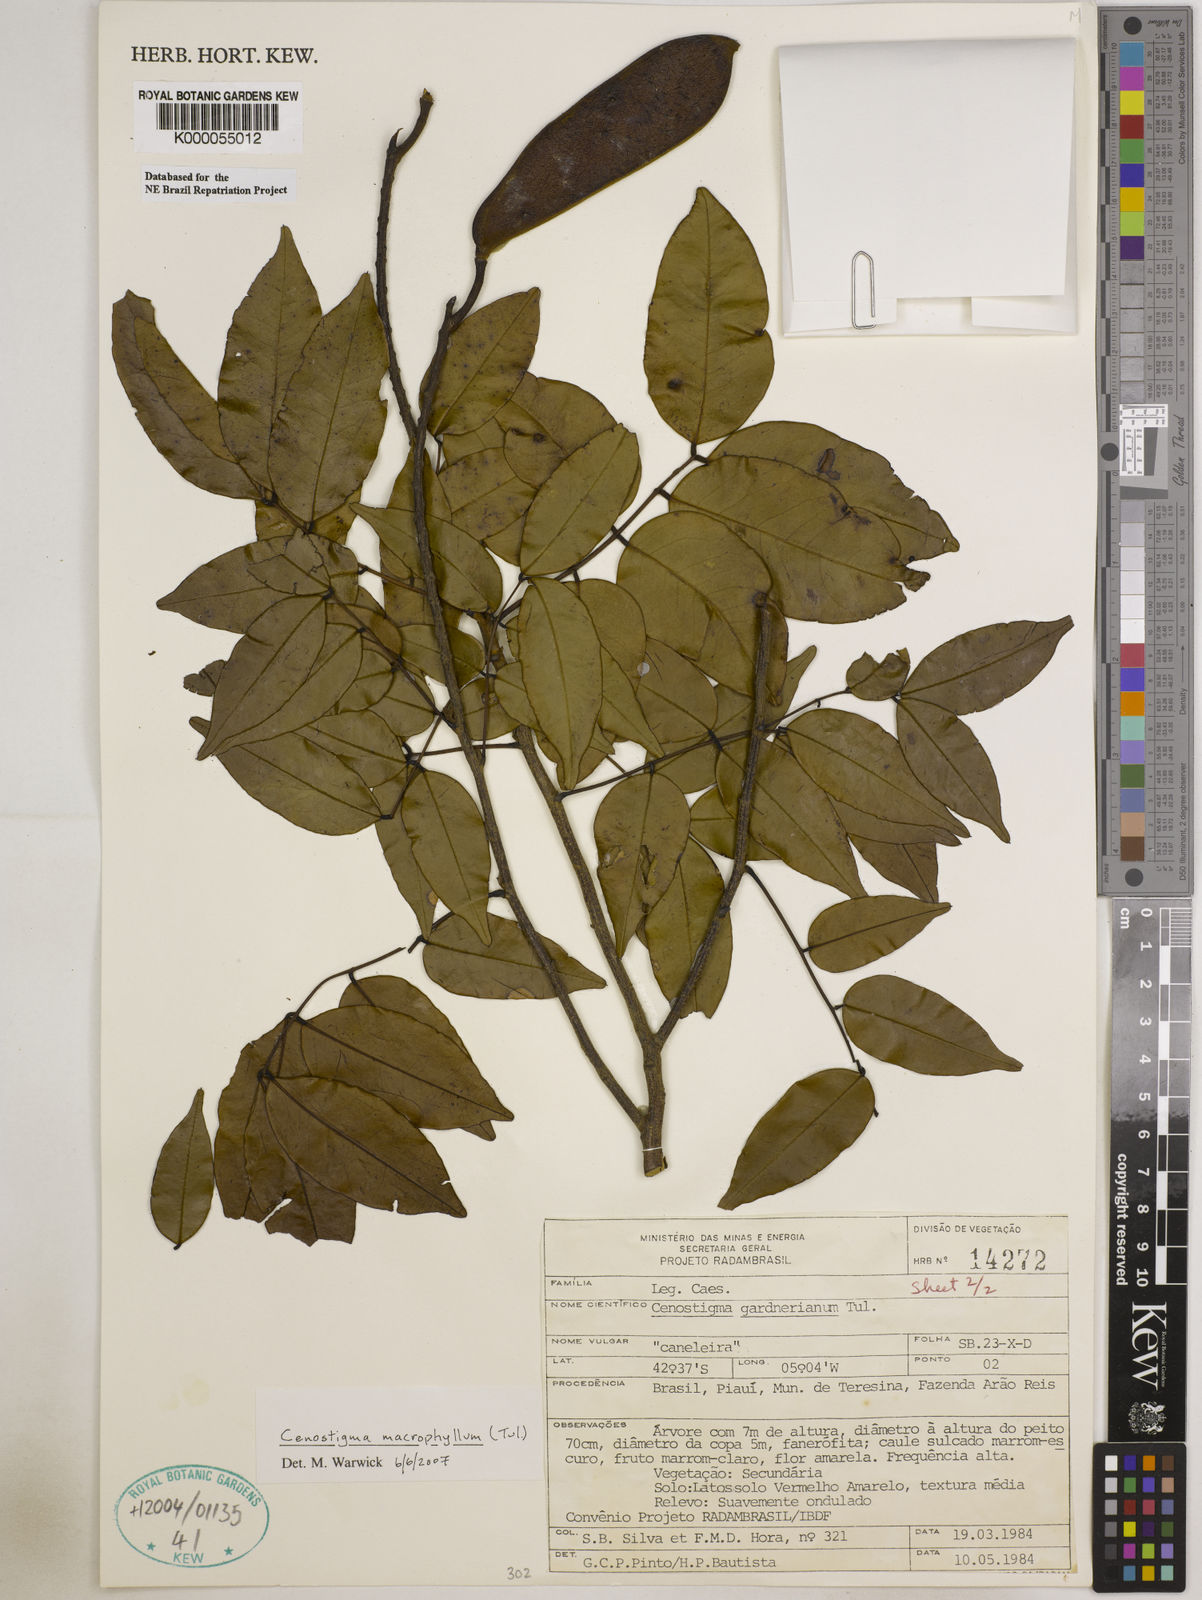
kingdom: Plantae
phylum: Tracheophyta
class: Magnoliopsida
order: Fabales
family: Fabaceae
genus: Cenostigma
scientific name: Cenostigma macrophyllum
